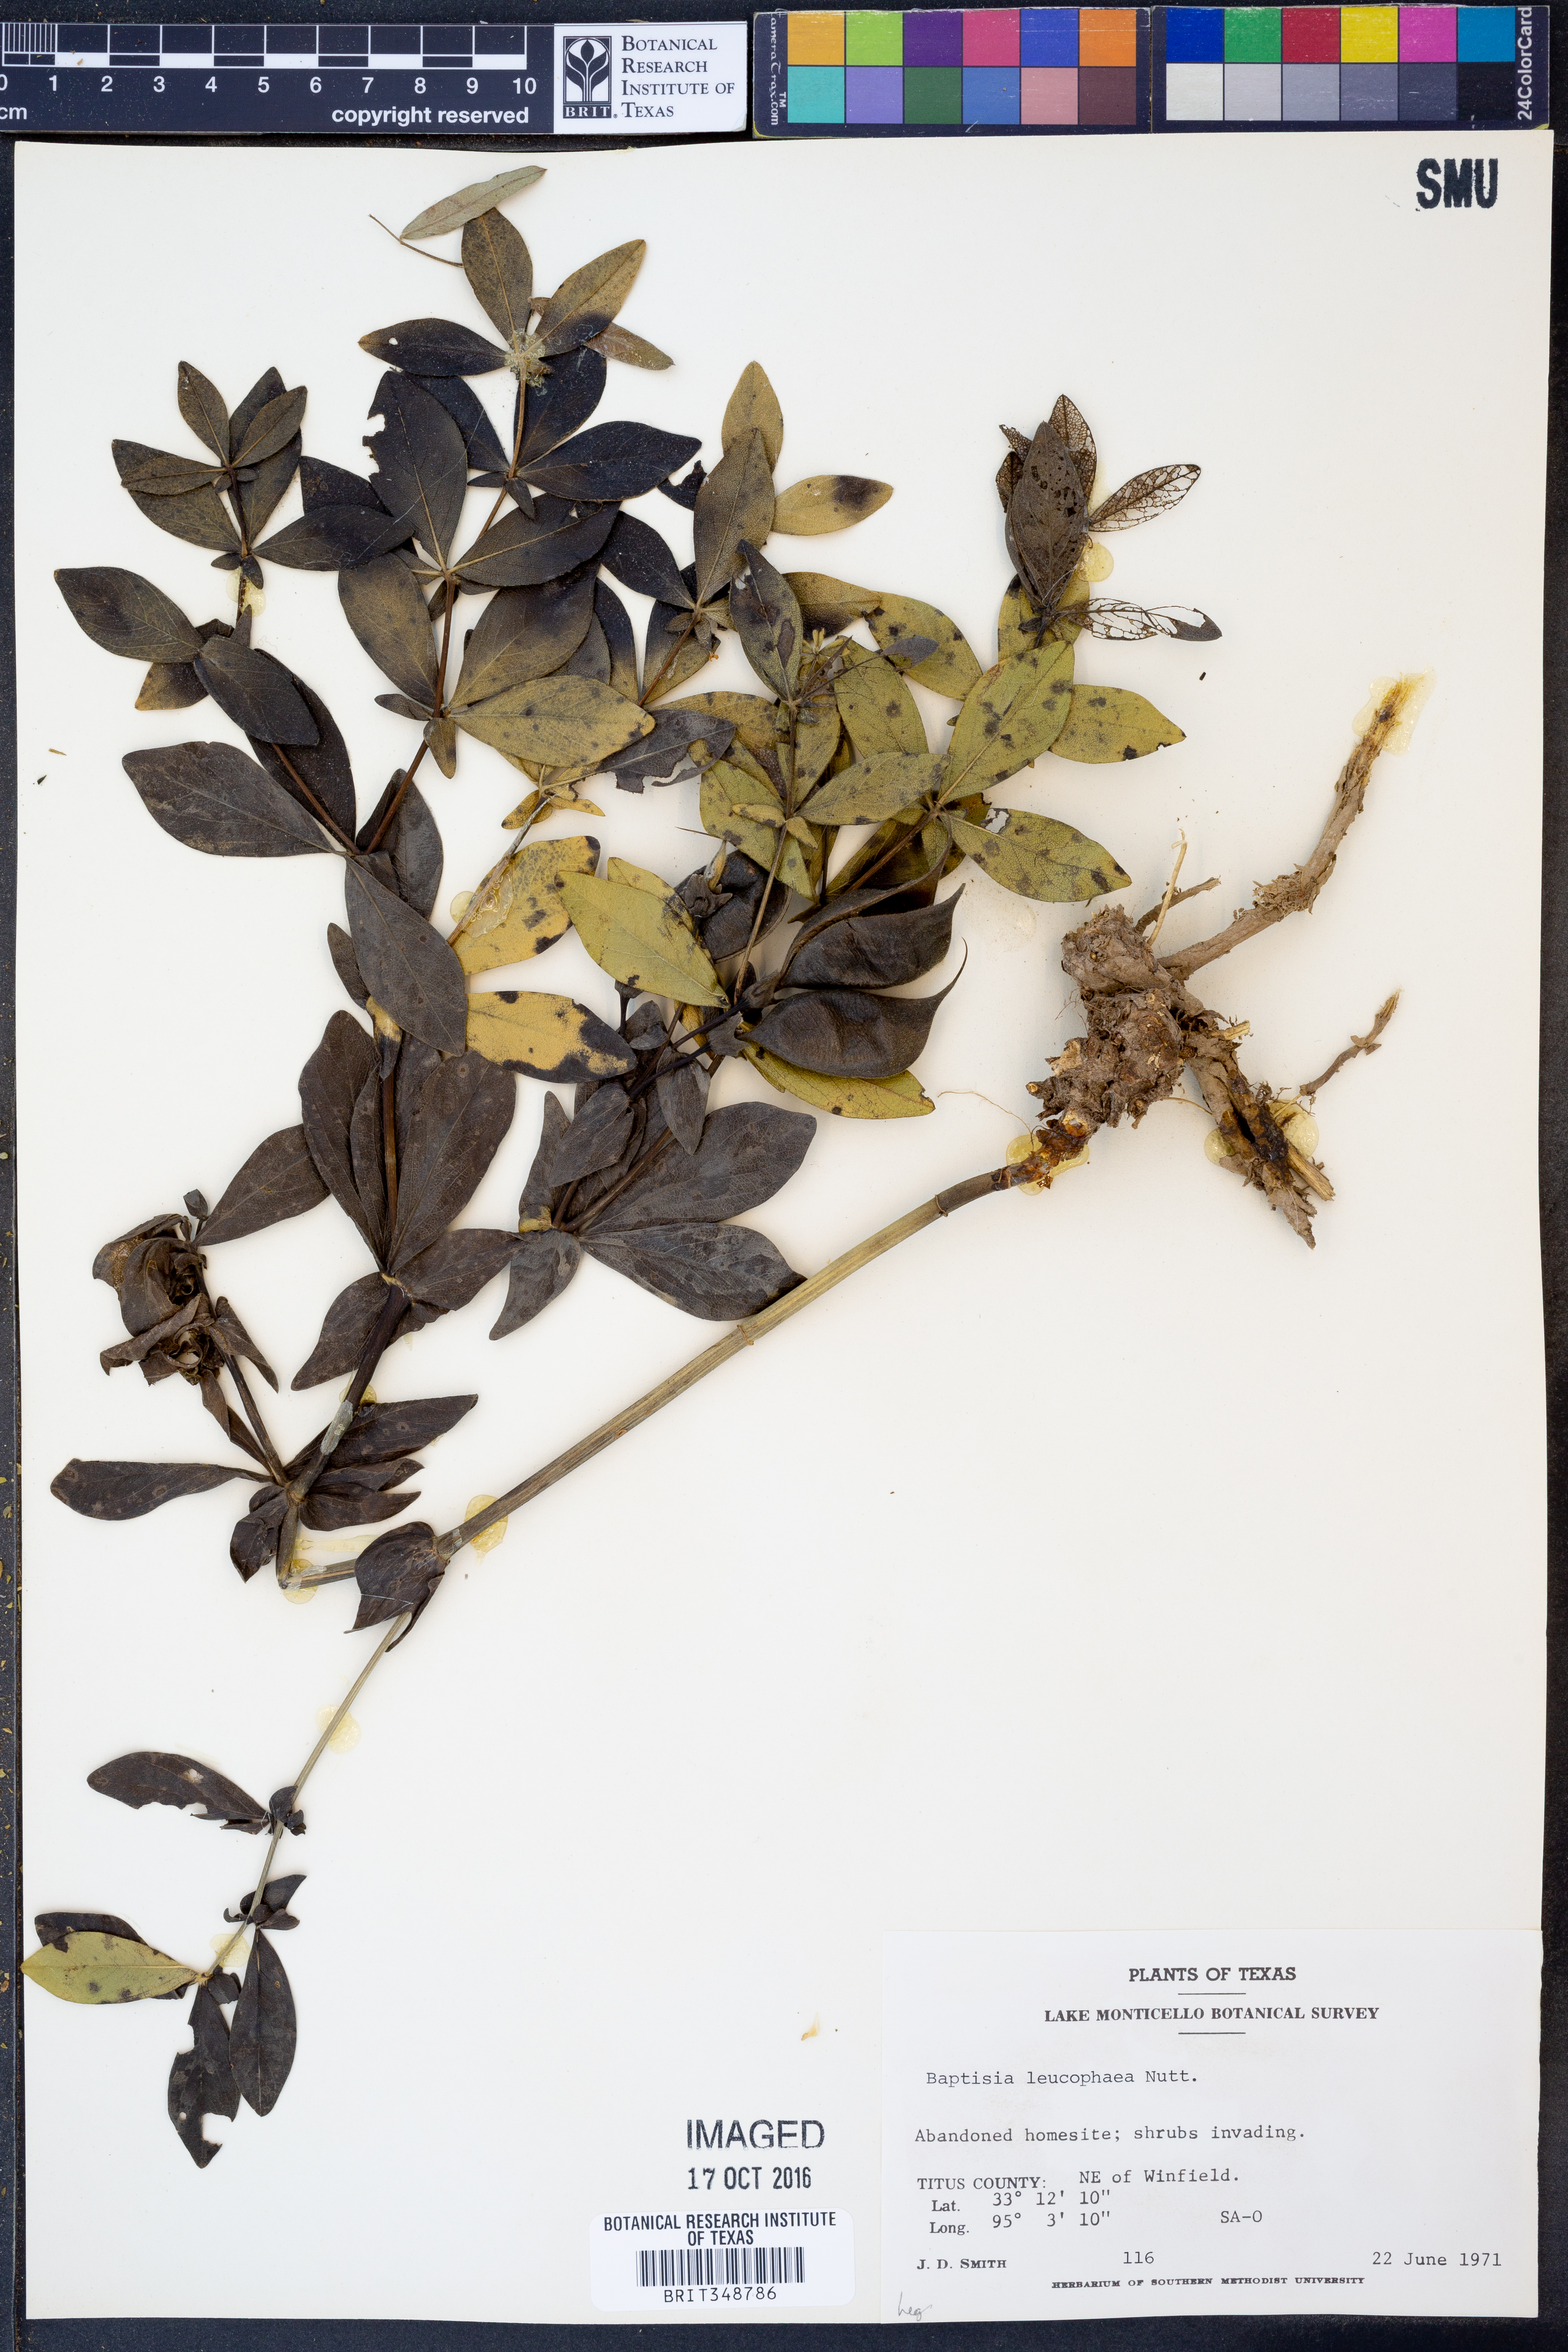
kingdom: Plantae
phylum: Tracheophyta
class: Magnoliopsida
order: Fabales
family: Fabaceae
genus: Baptisia
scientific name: Baptisia bracteata
